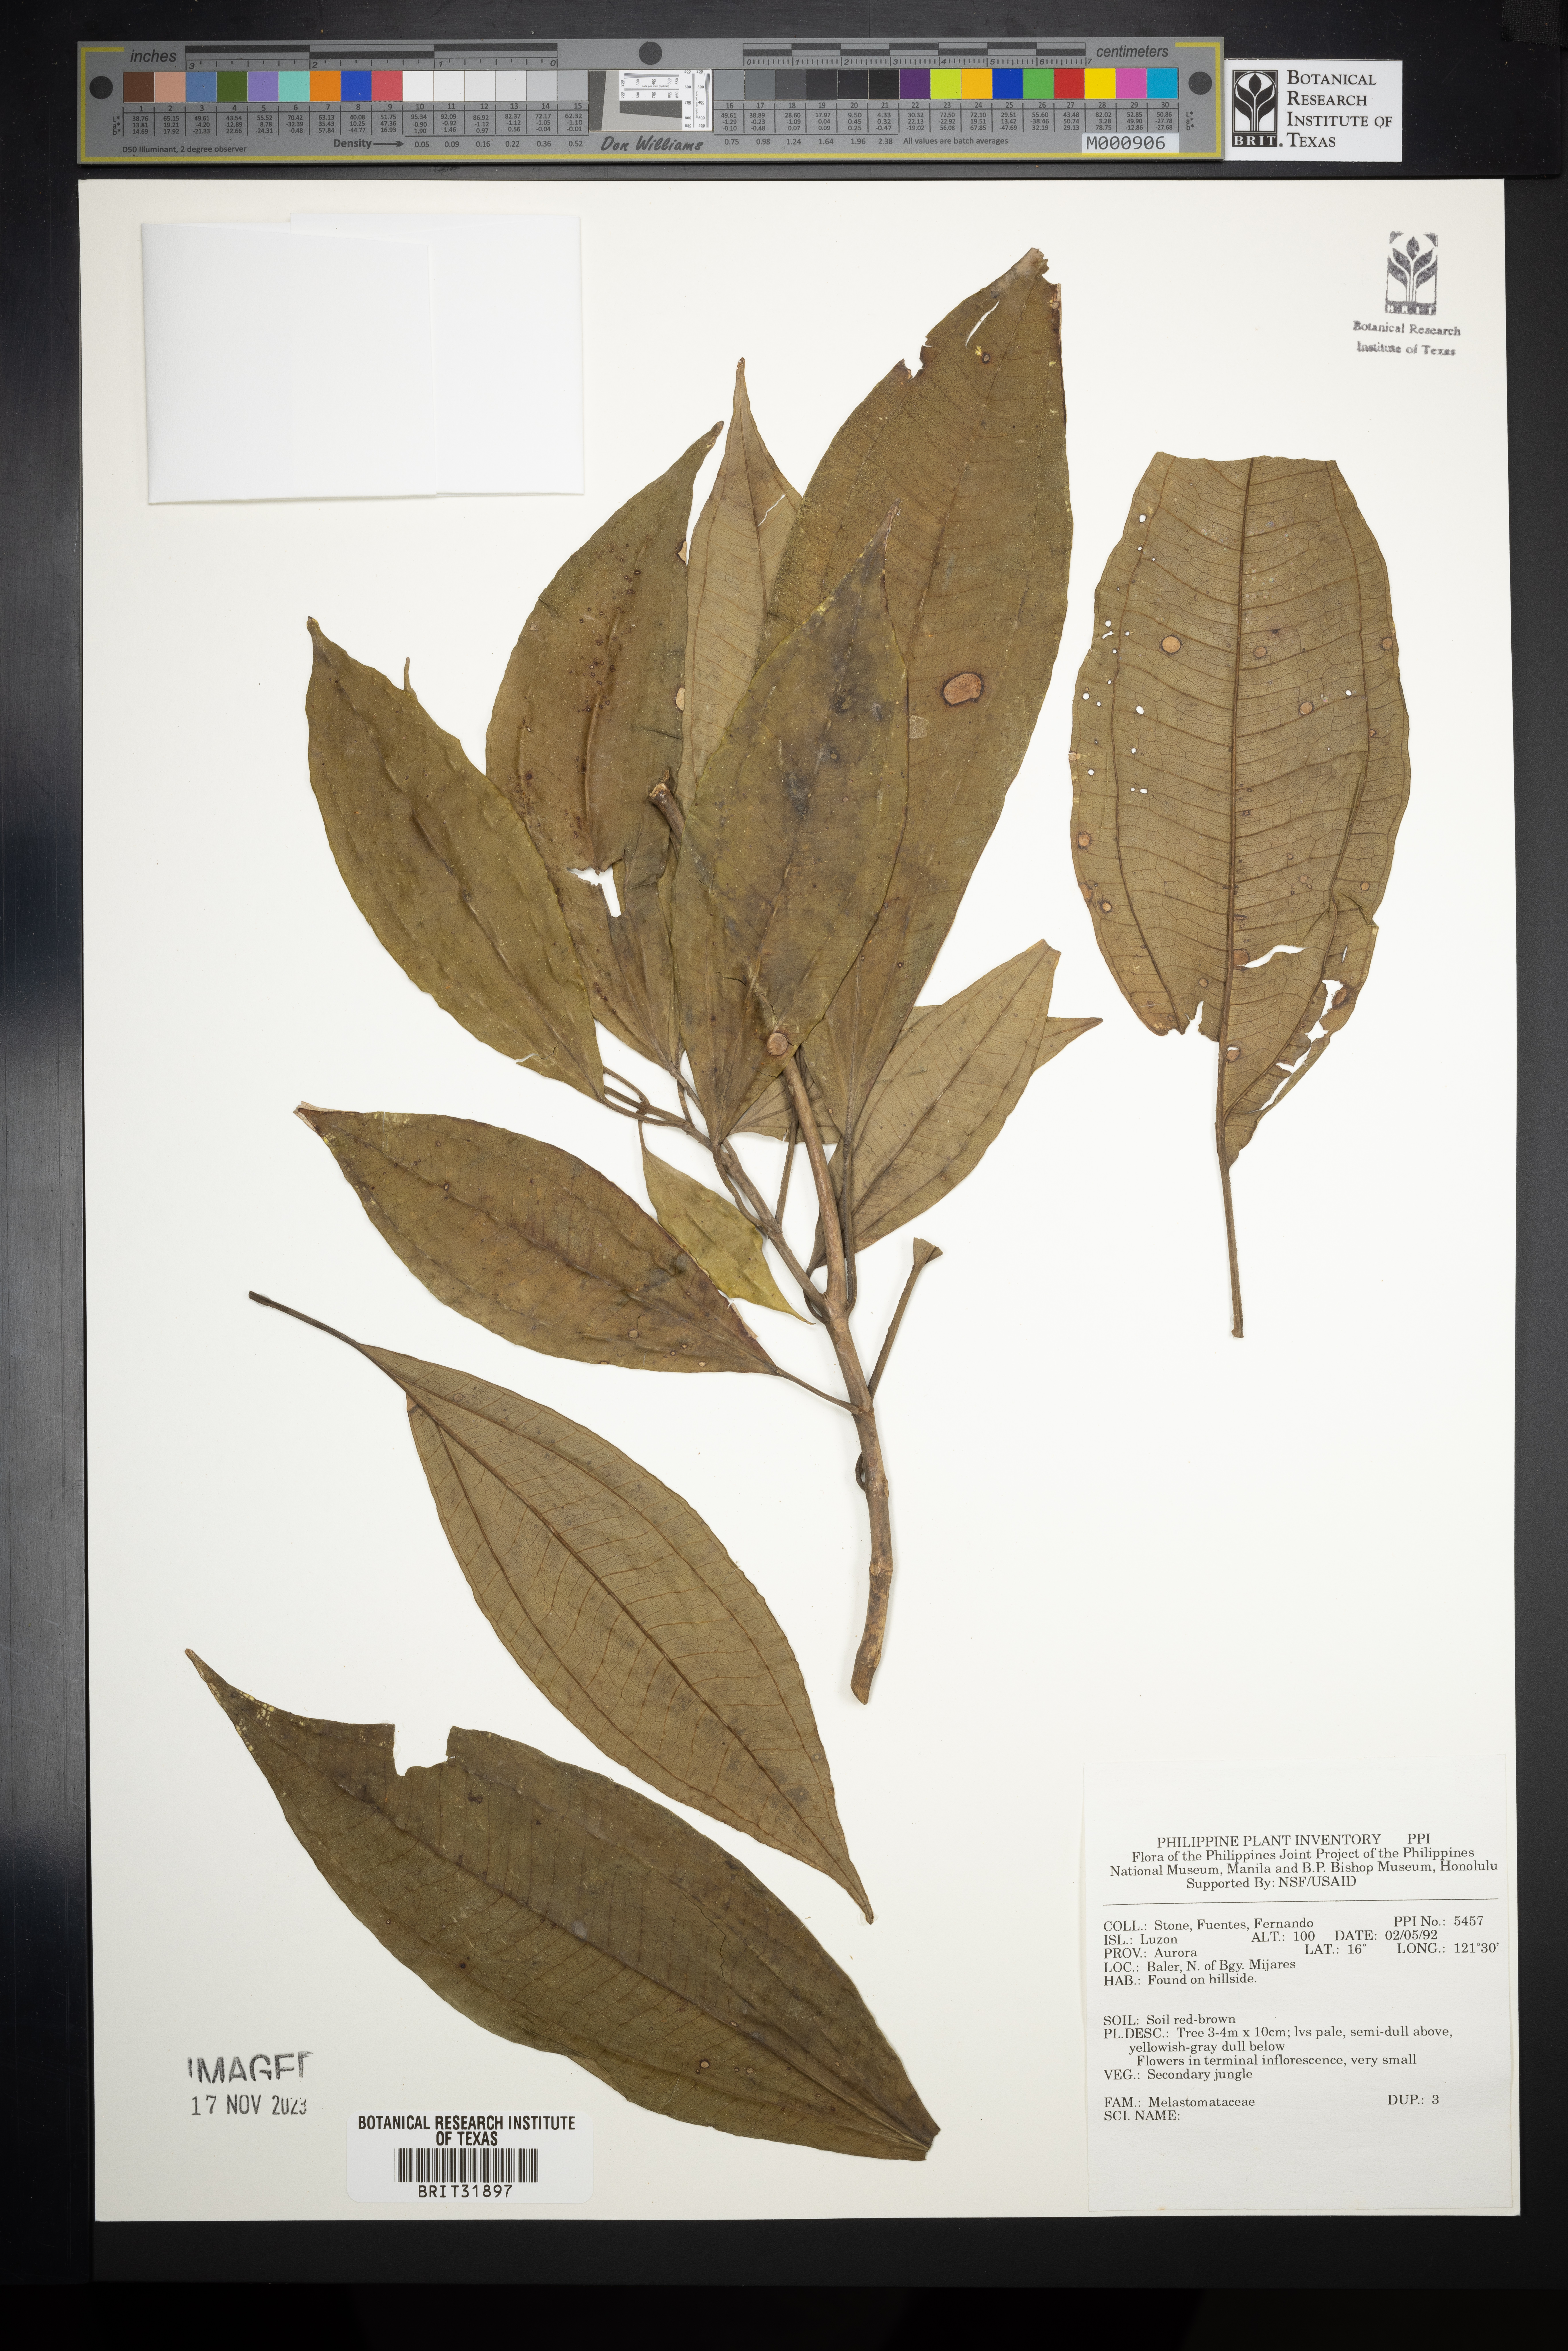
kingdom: Plantae
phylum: Tracheophyta
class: Magnoliopsida
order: Myrtales
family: Melastomataceae
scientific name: Melastomataceae
